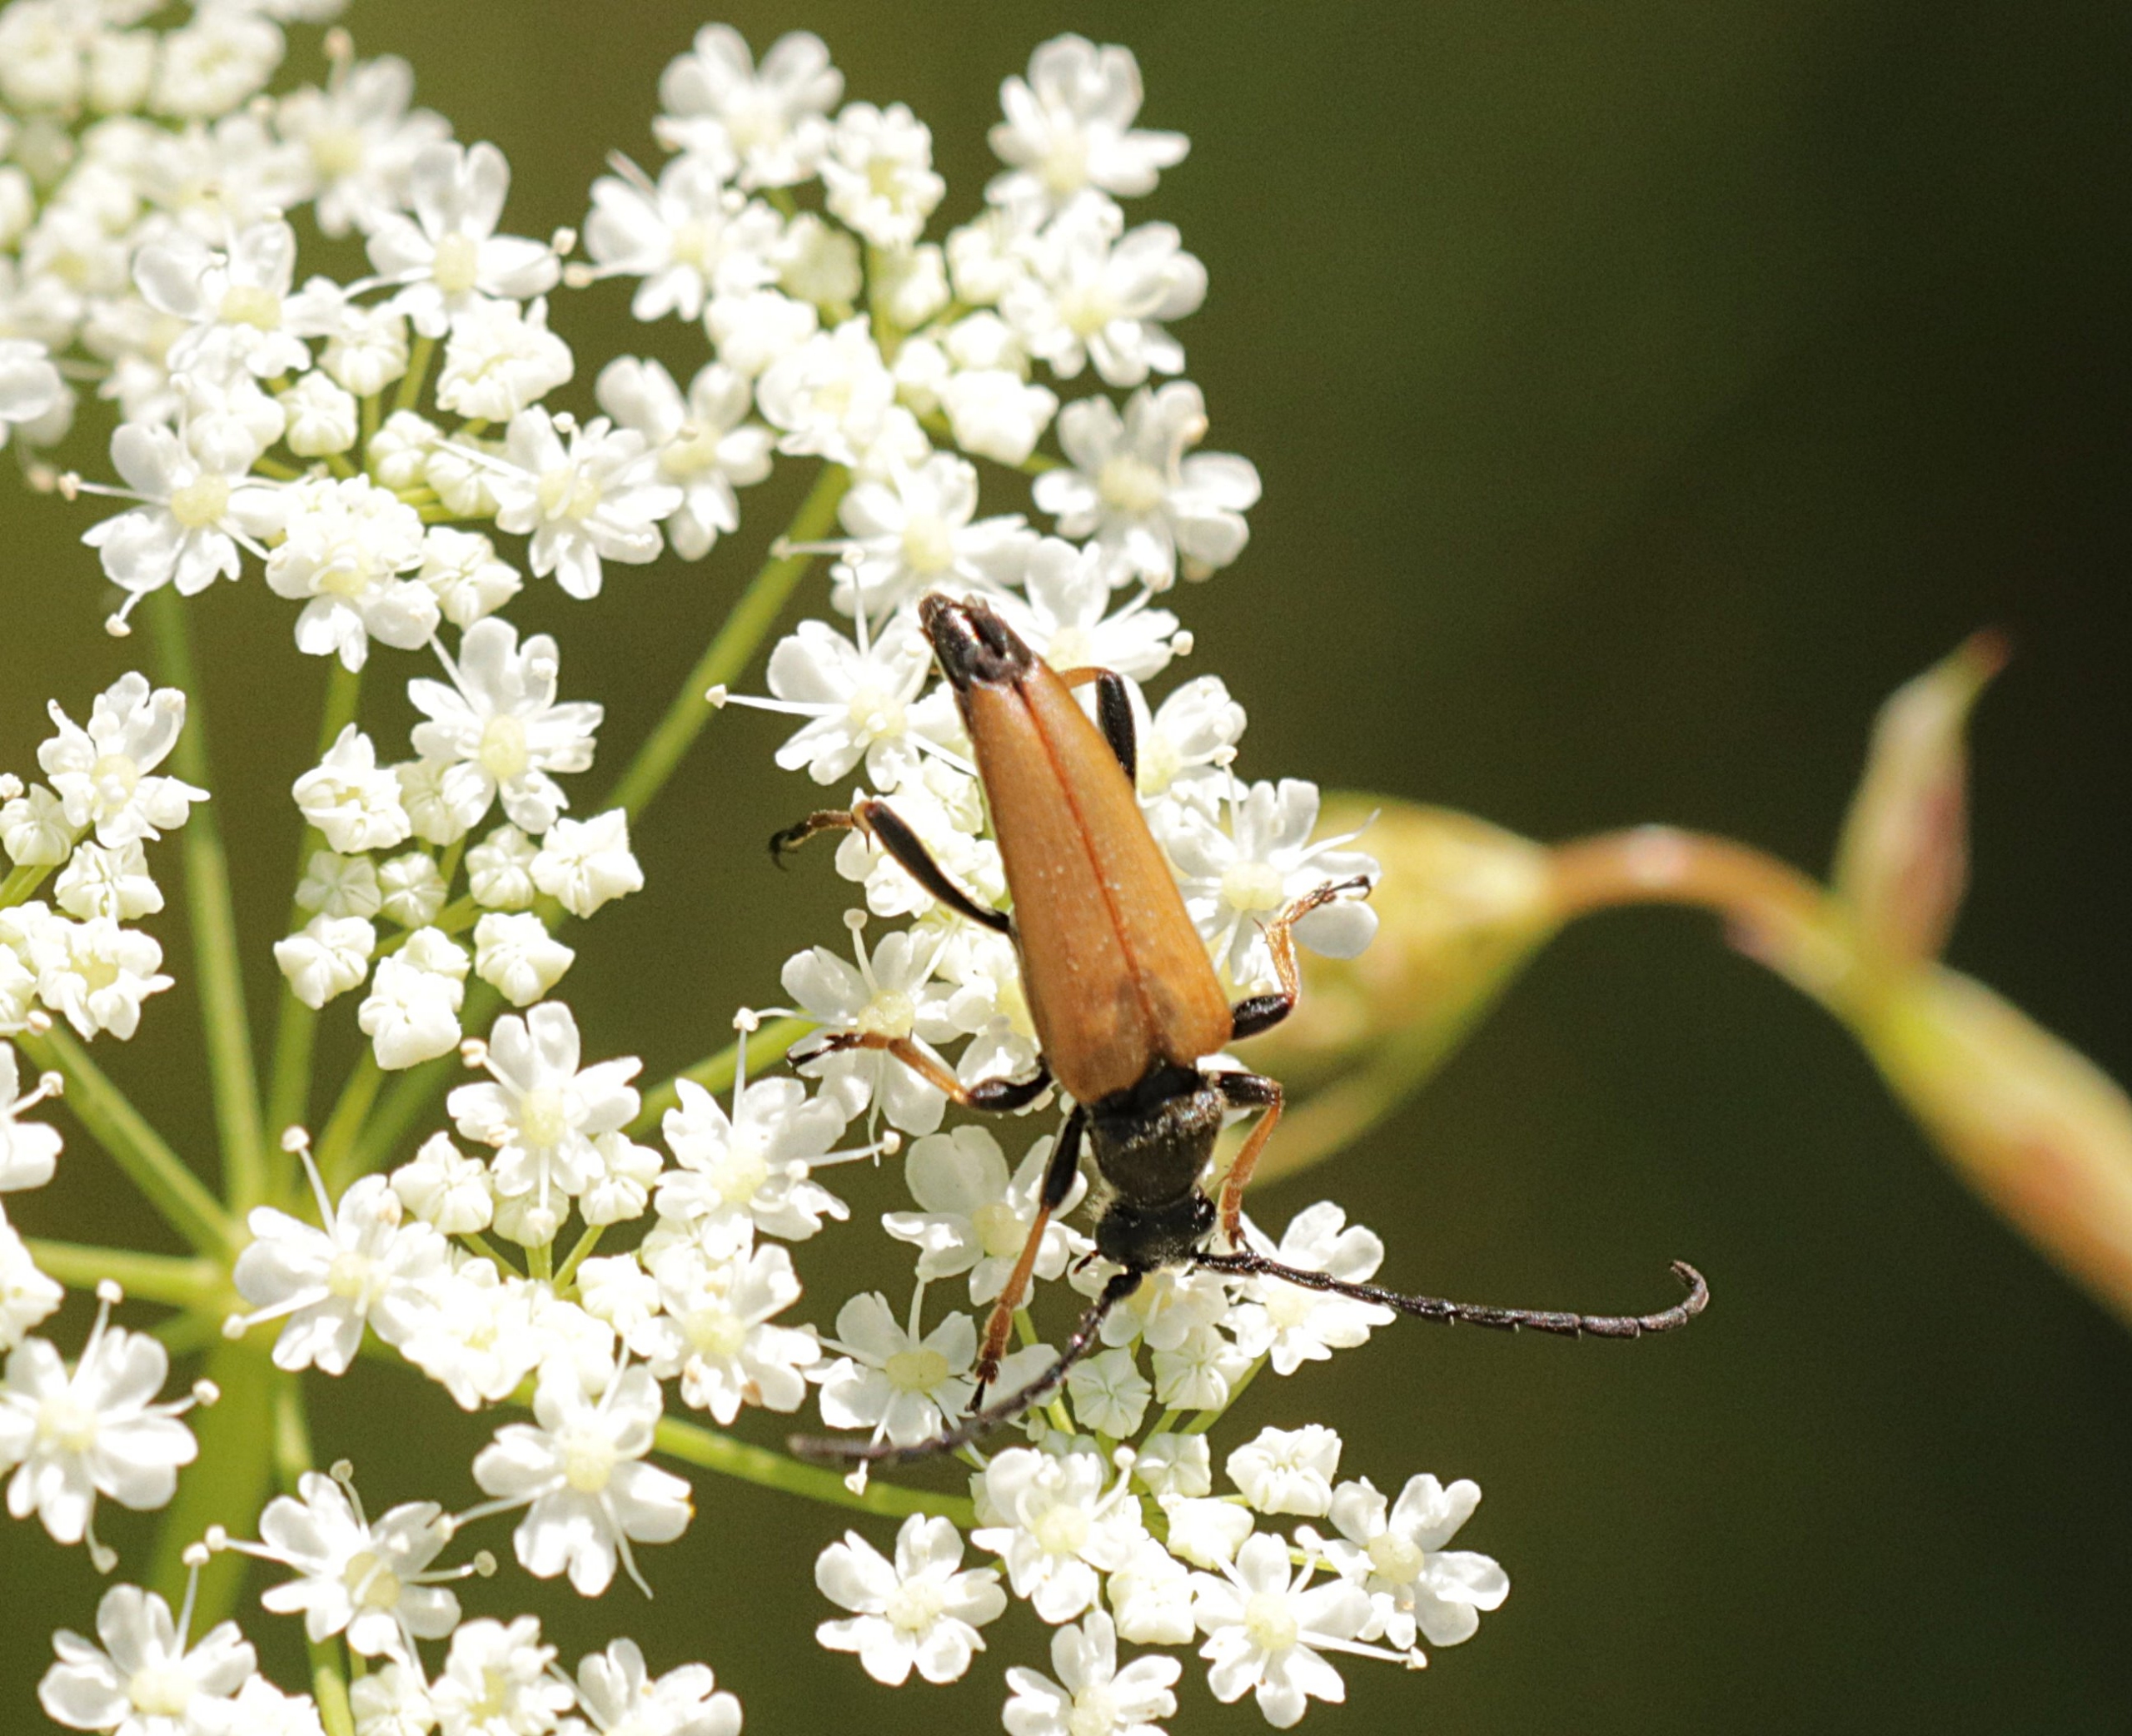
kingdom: Animalia
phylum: Arthropoda
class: Insecta
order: Coleoptera
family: Cerambycidae
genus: Stictoleptura
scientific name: Stictoleptura rubra
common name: Rød blomsterbuk
